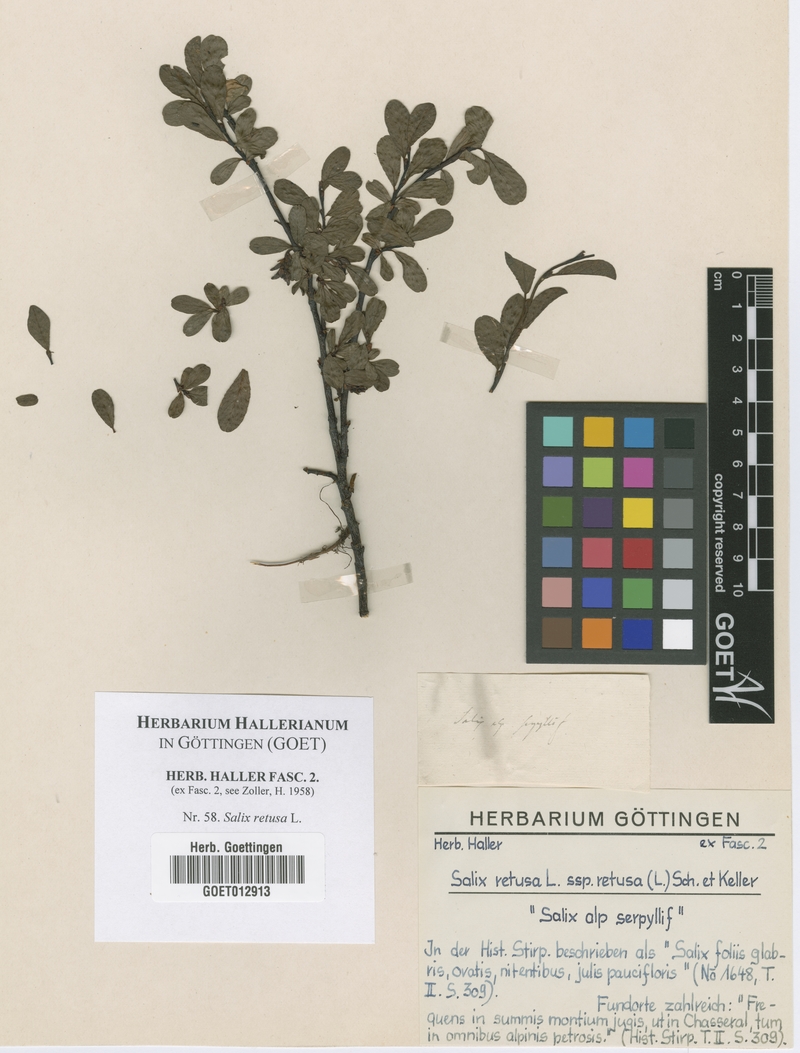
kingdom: Plantae
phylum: Tracheophyta
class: Magnoliopsida
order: Malpighiales
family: Salicaceae
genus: Salix
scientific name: Salix retusa
